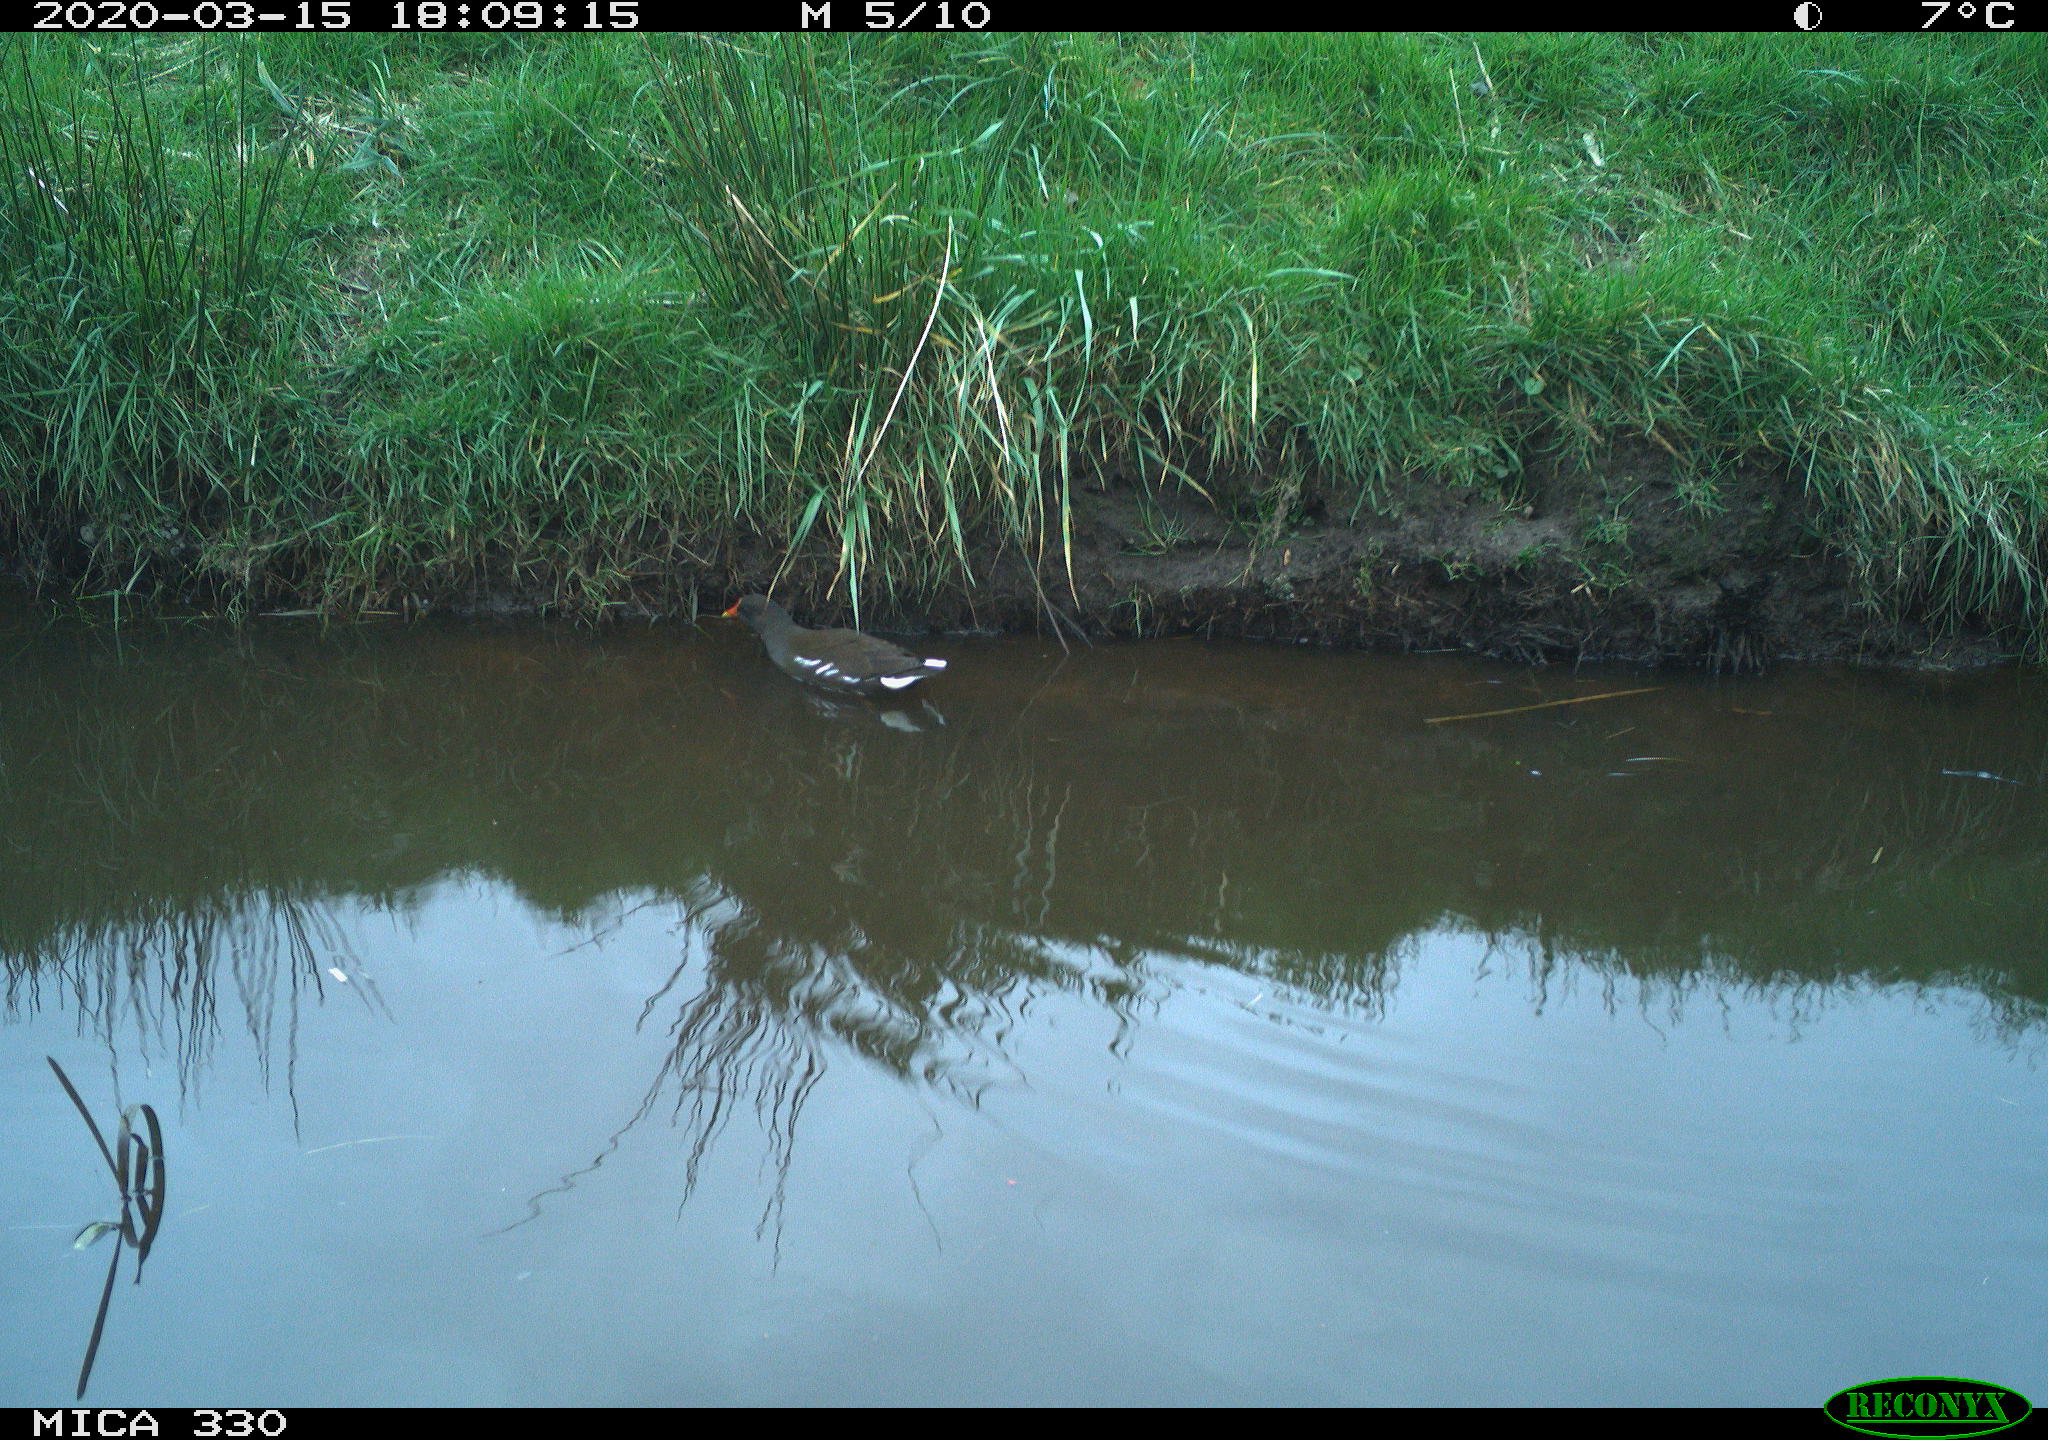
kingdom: Animalia
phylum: Chordata
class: Aves
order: Gruiformes
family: Rallidae
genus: Gallinula
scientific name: Gallinula chloropus
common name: Common moorhen
